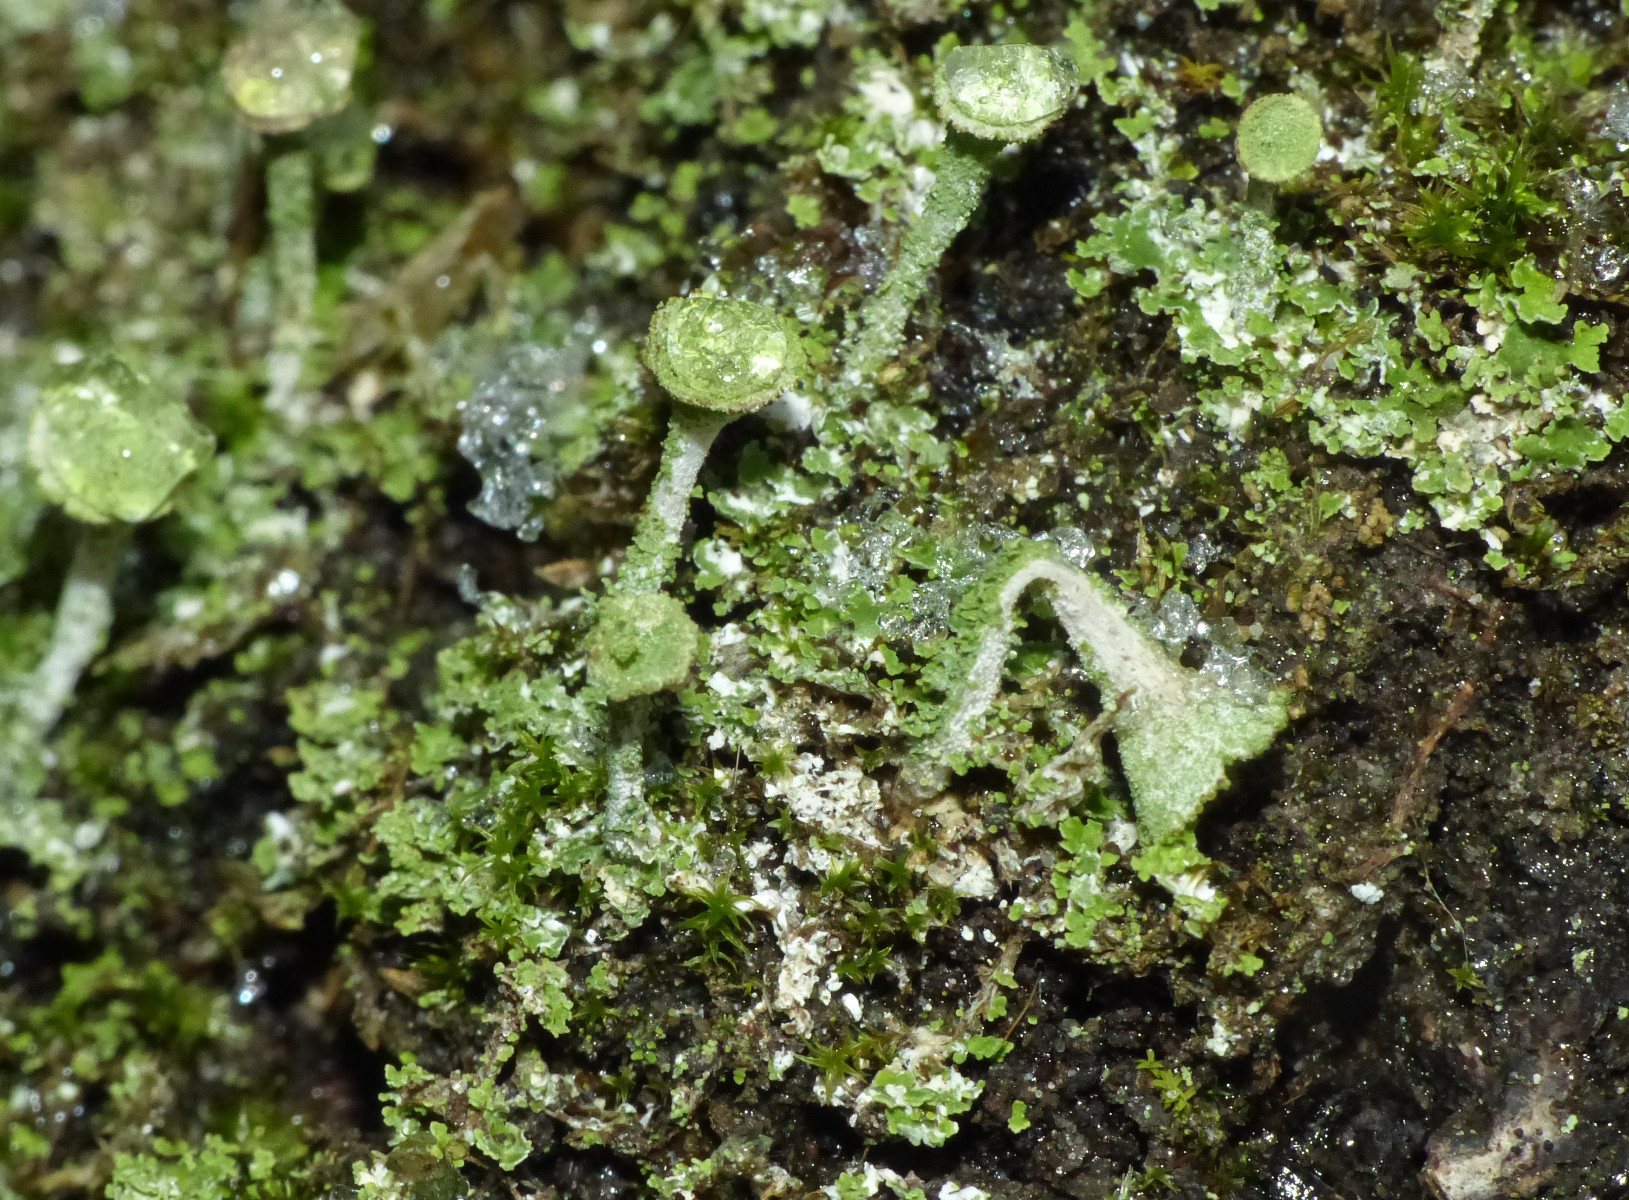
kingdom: Fungi
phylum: Ascomycota
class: Lecanoromycetes
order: Lecanorales
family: Cladoniaceae
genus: Cladonia
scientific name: Cladonia
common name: brungrøn bægerlav
